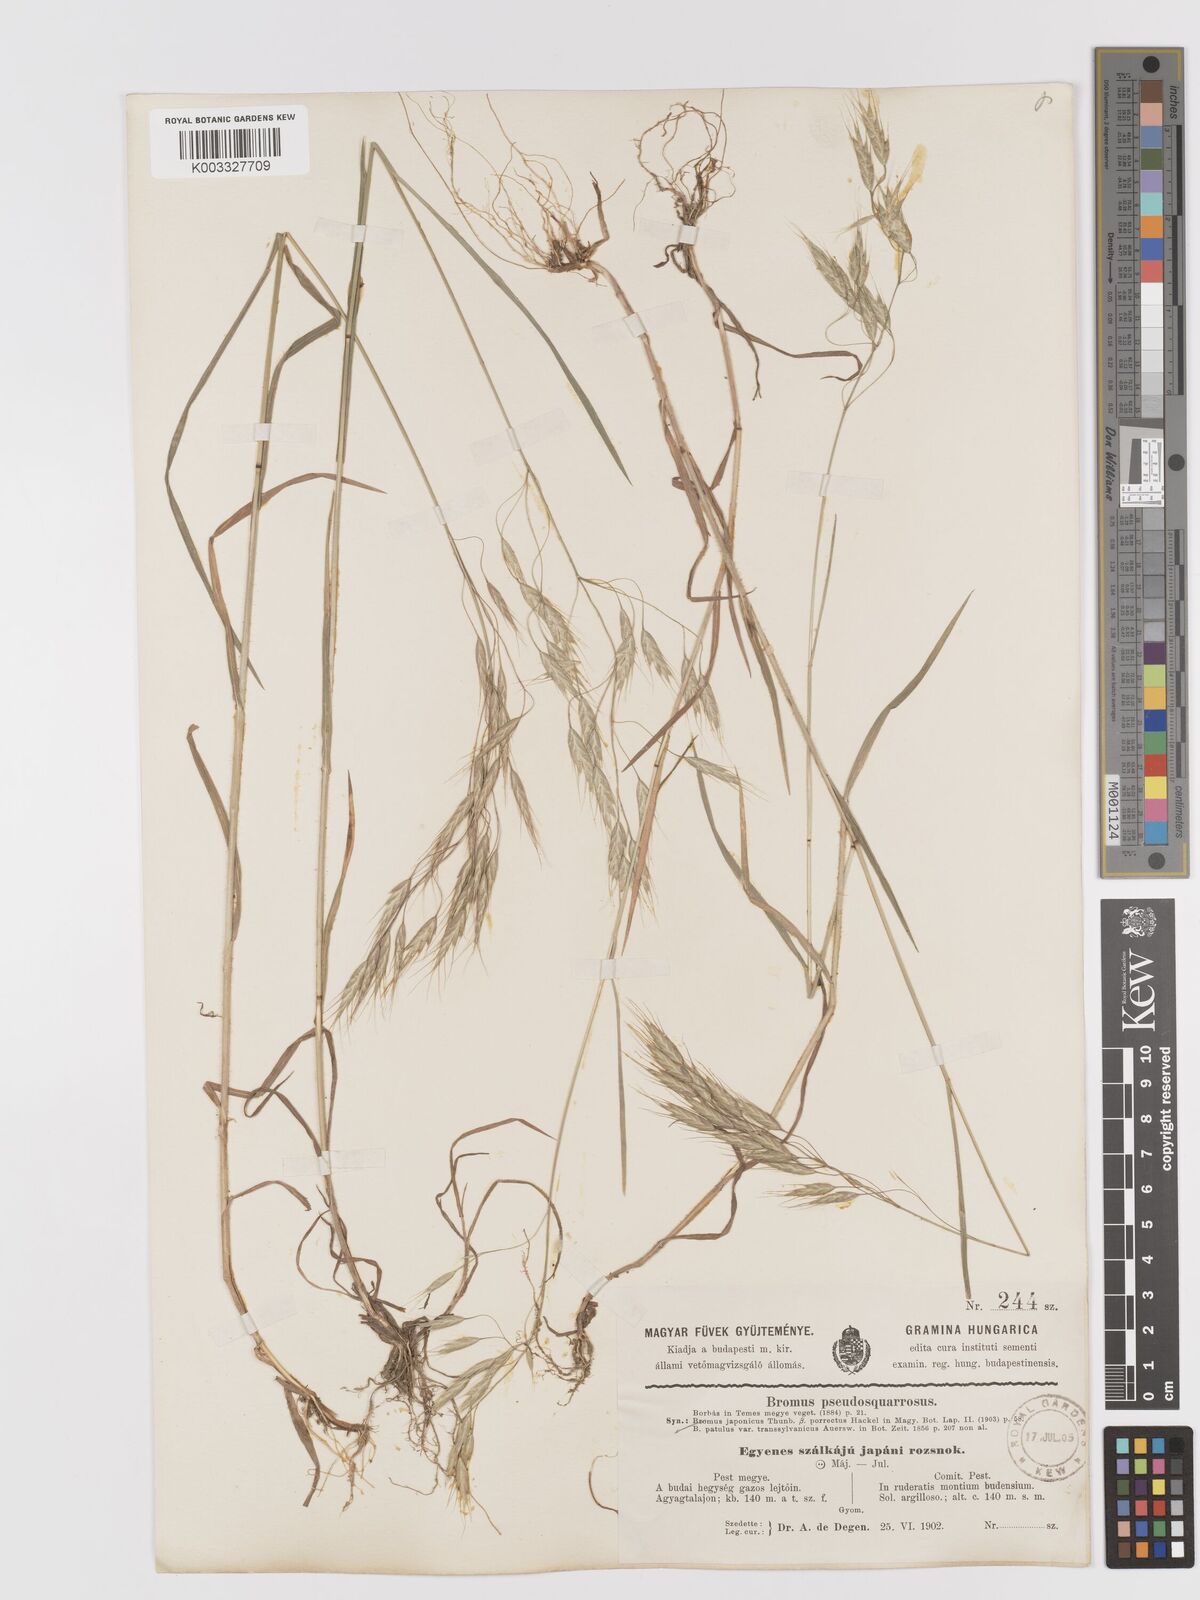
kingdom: Plantae
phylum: Tracheophyta
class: Liliopsida
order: Poales
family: Poaceae
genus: Bromus
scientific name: Bromus japonicus
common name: Japanese brome
